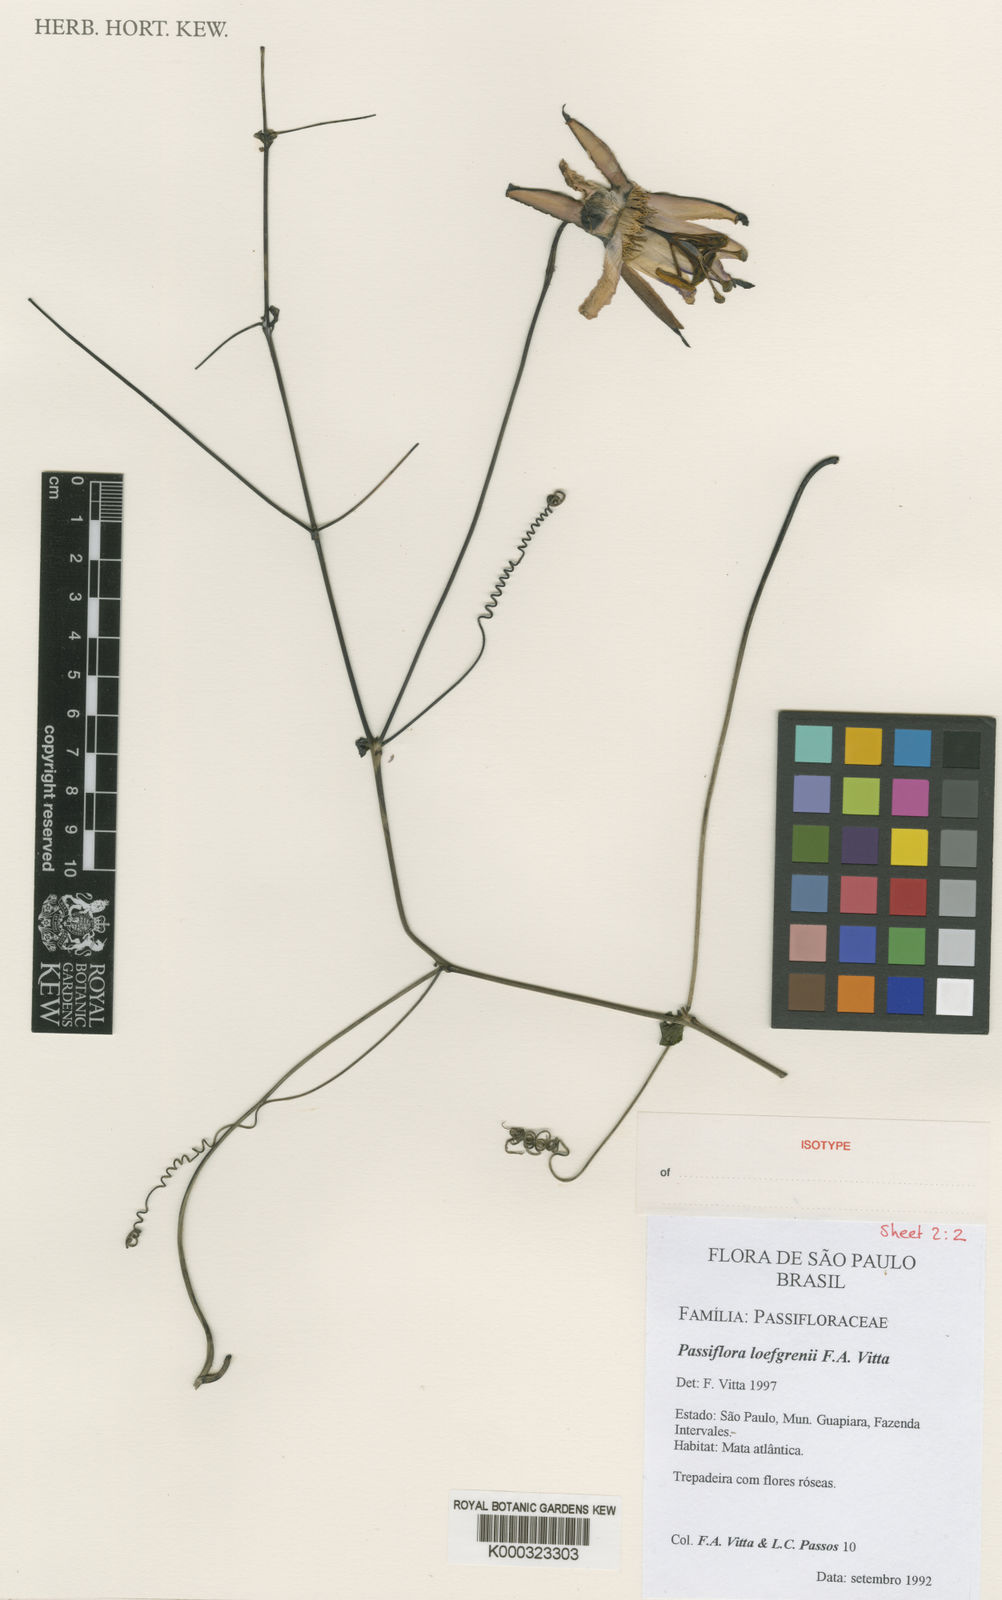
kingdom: Plantae
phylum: Tracheophyta
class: Magnoliopsida
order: Malpighiales
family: Passifloraceae
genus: Passiflora
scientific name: Passiflora loefgrenii
